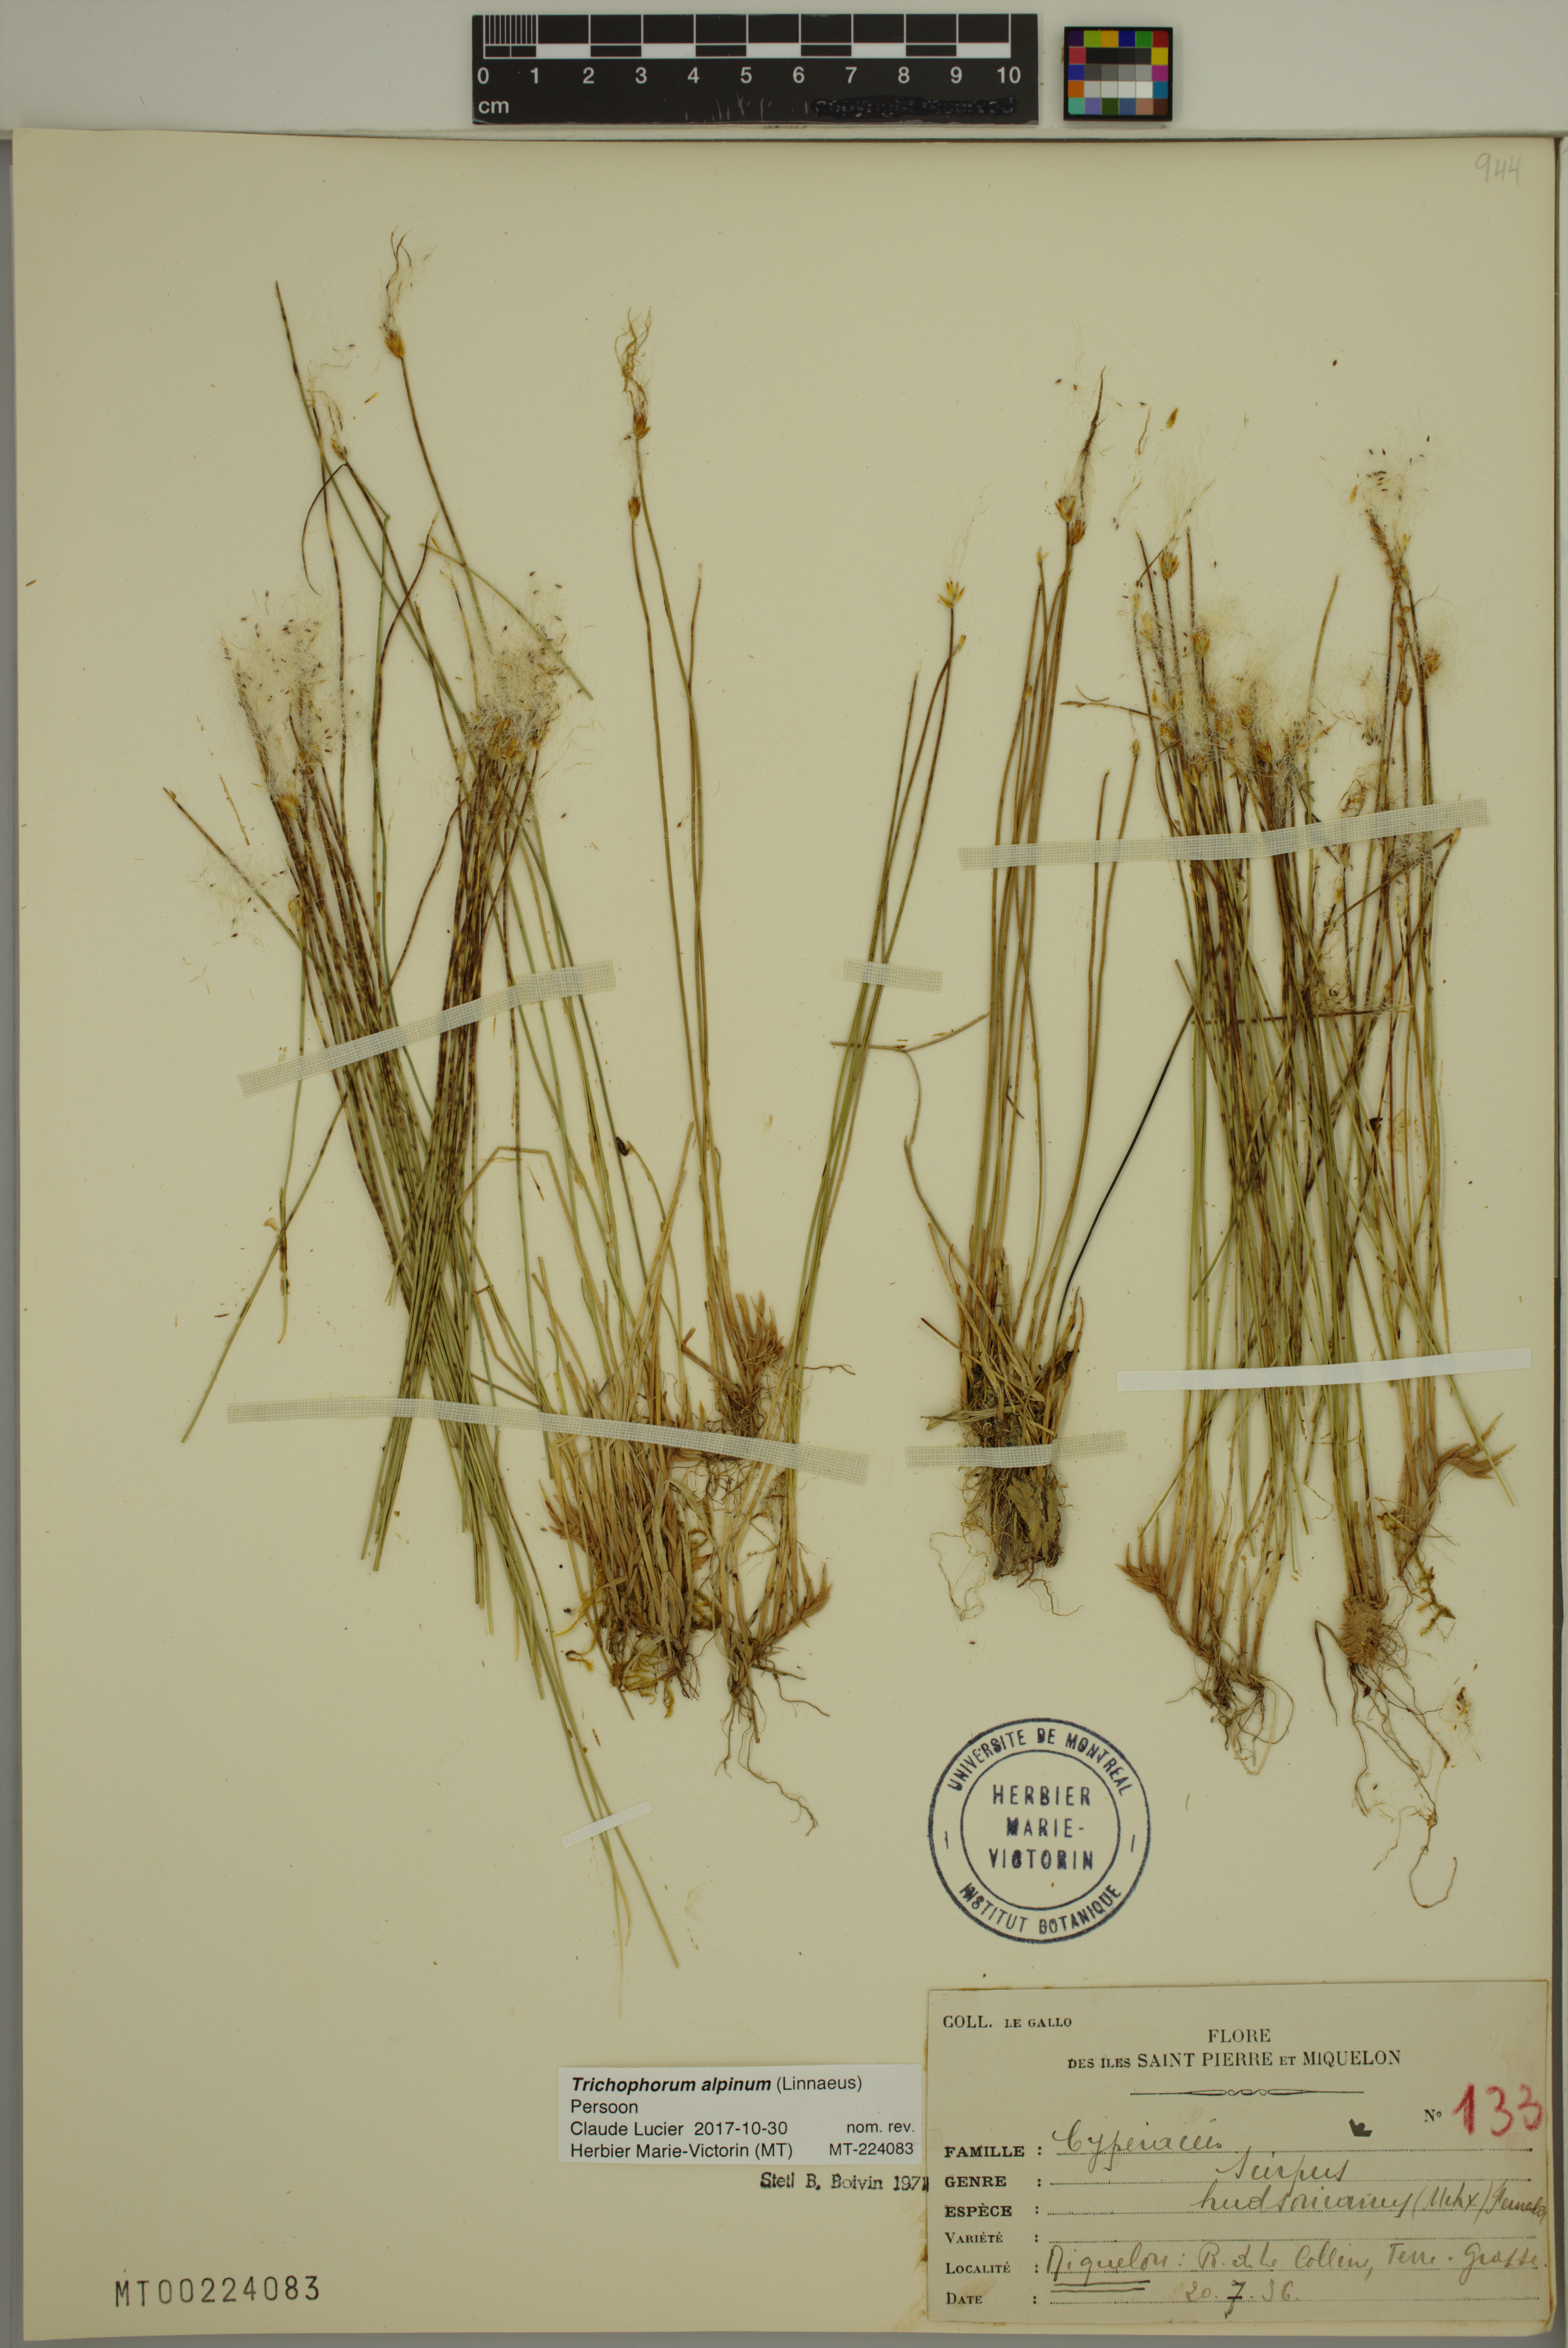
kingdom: Plantae
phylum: Tracheophyta
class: Liliopsida
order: Poales
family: Cyperaceae
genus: Trichophorum
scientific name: Trichophorum alpinum
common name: Alpine bulrush
